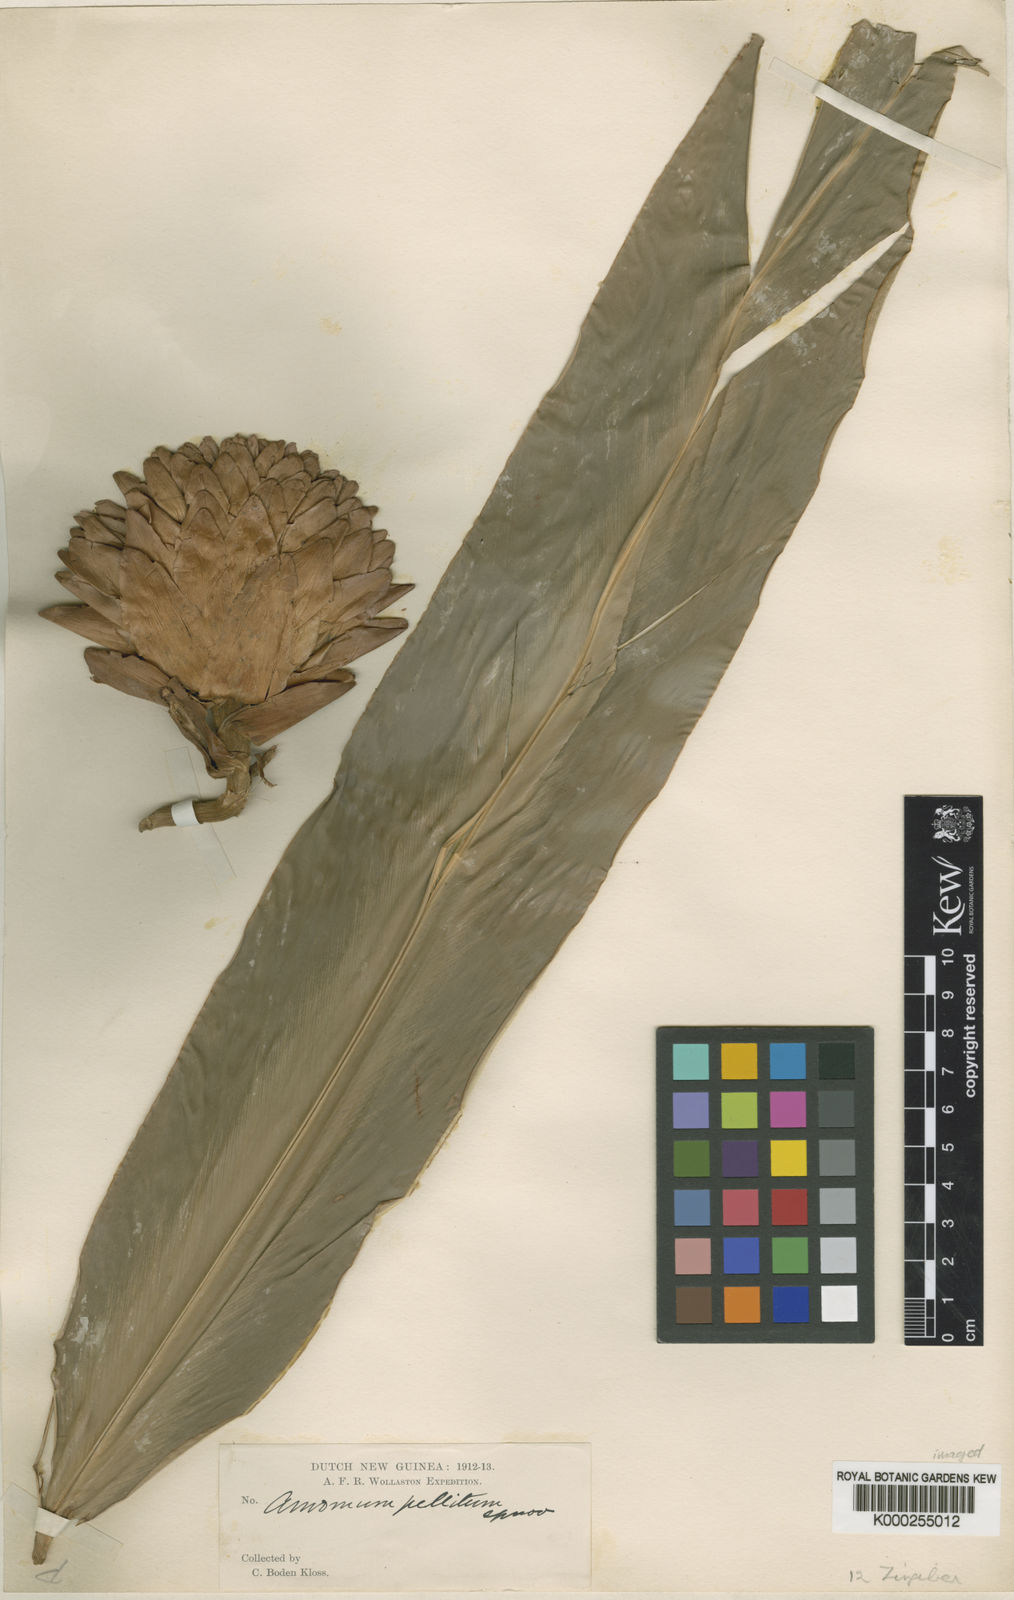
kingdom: Plantae
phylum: Tracheophyta
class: Liliopsida
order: Zingiberales
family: Zingiberaceae
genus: Amomum
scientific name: Amomum pellitum
